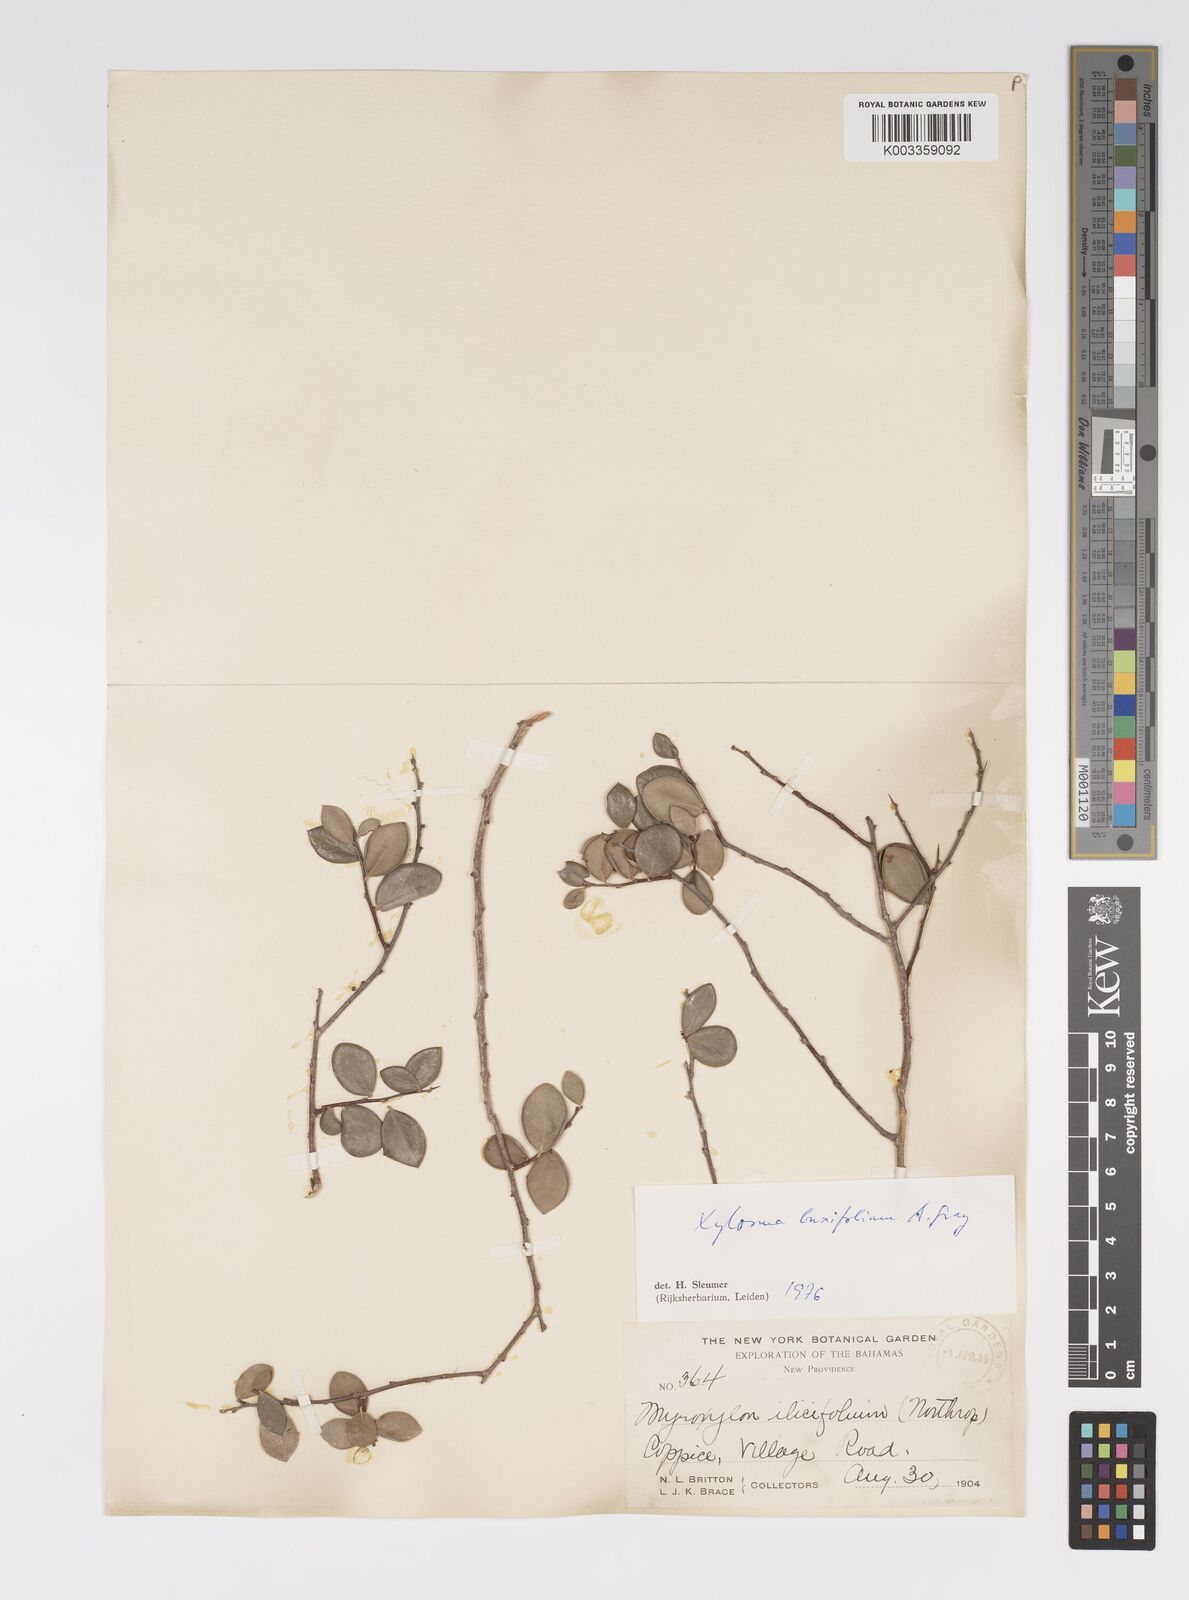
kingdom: Plantae
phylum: Tracheophyta
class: Magnoliopsida
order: Malpighiales
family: Salicaceae
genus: Xylosma
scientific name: Xylosma buxifolia
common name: Cockspur
